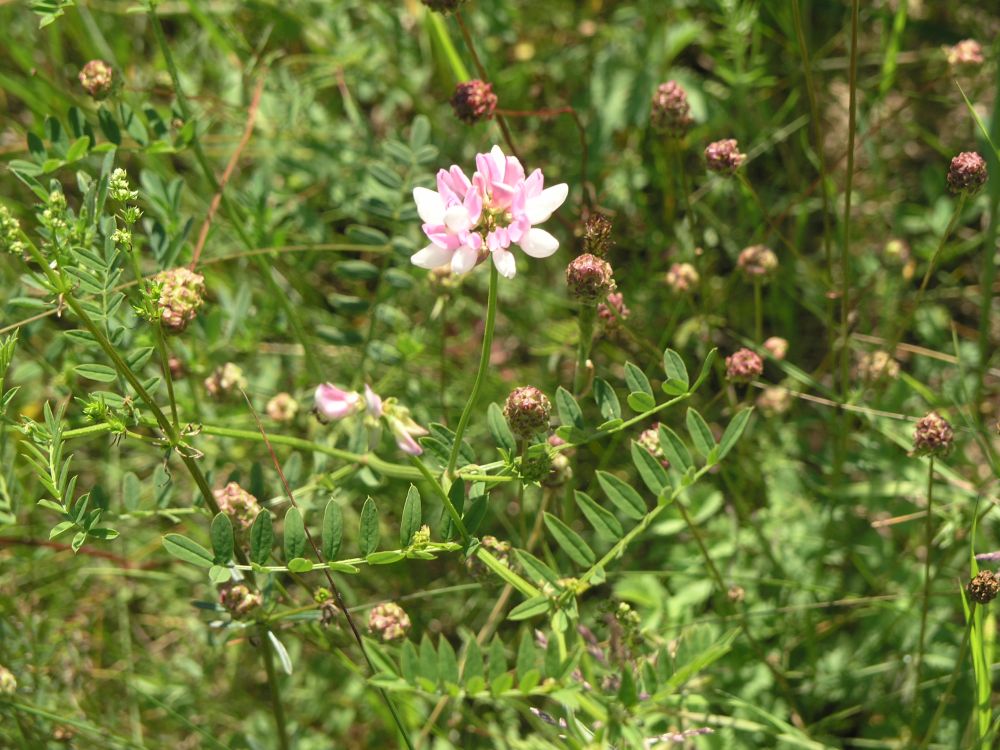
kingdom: Plantae
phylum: Tracheophyta
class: Magnoliopsida
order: Fabales
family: Fabaceae
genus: Coronilla
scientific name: Coronilla varia
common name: Crownvetch
